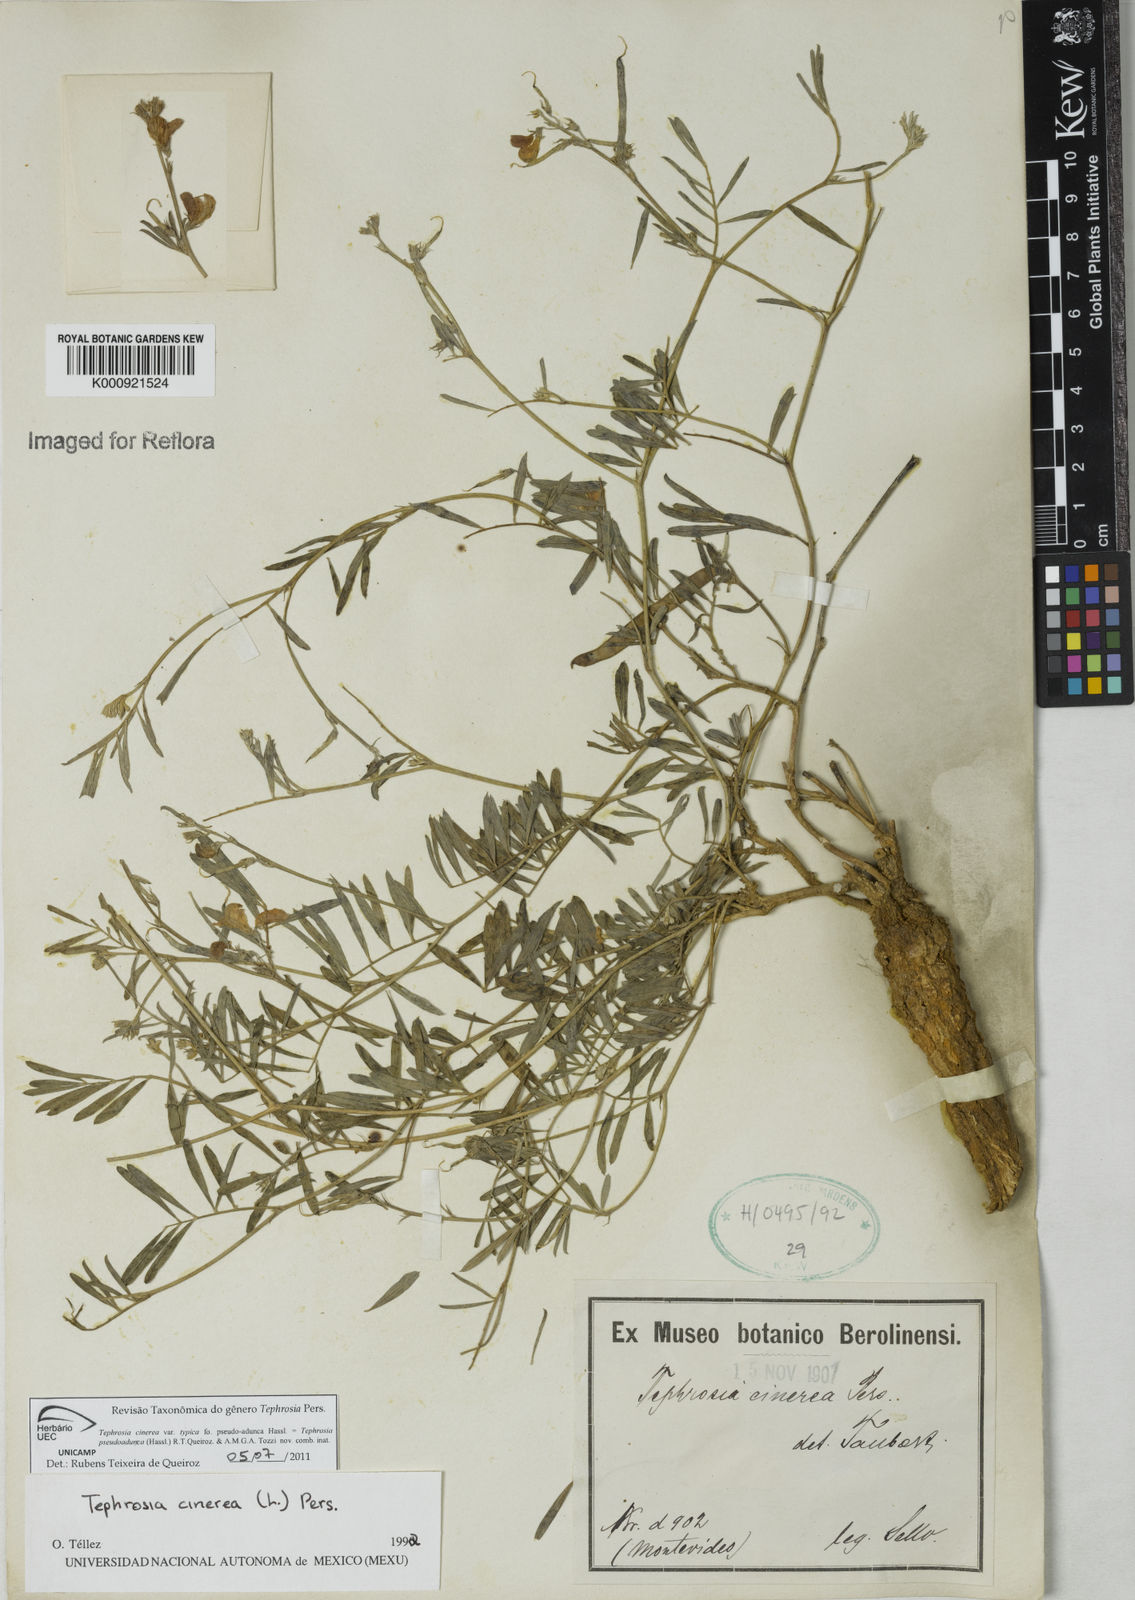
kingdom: Plantae
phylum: Tracheophyta
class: Magnoliopsida
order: Fabales
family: Fabaceae
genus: Tephrosia
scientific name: Tephrosia
